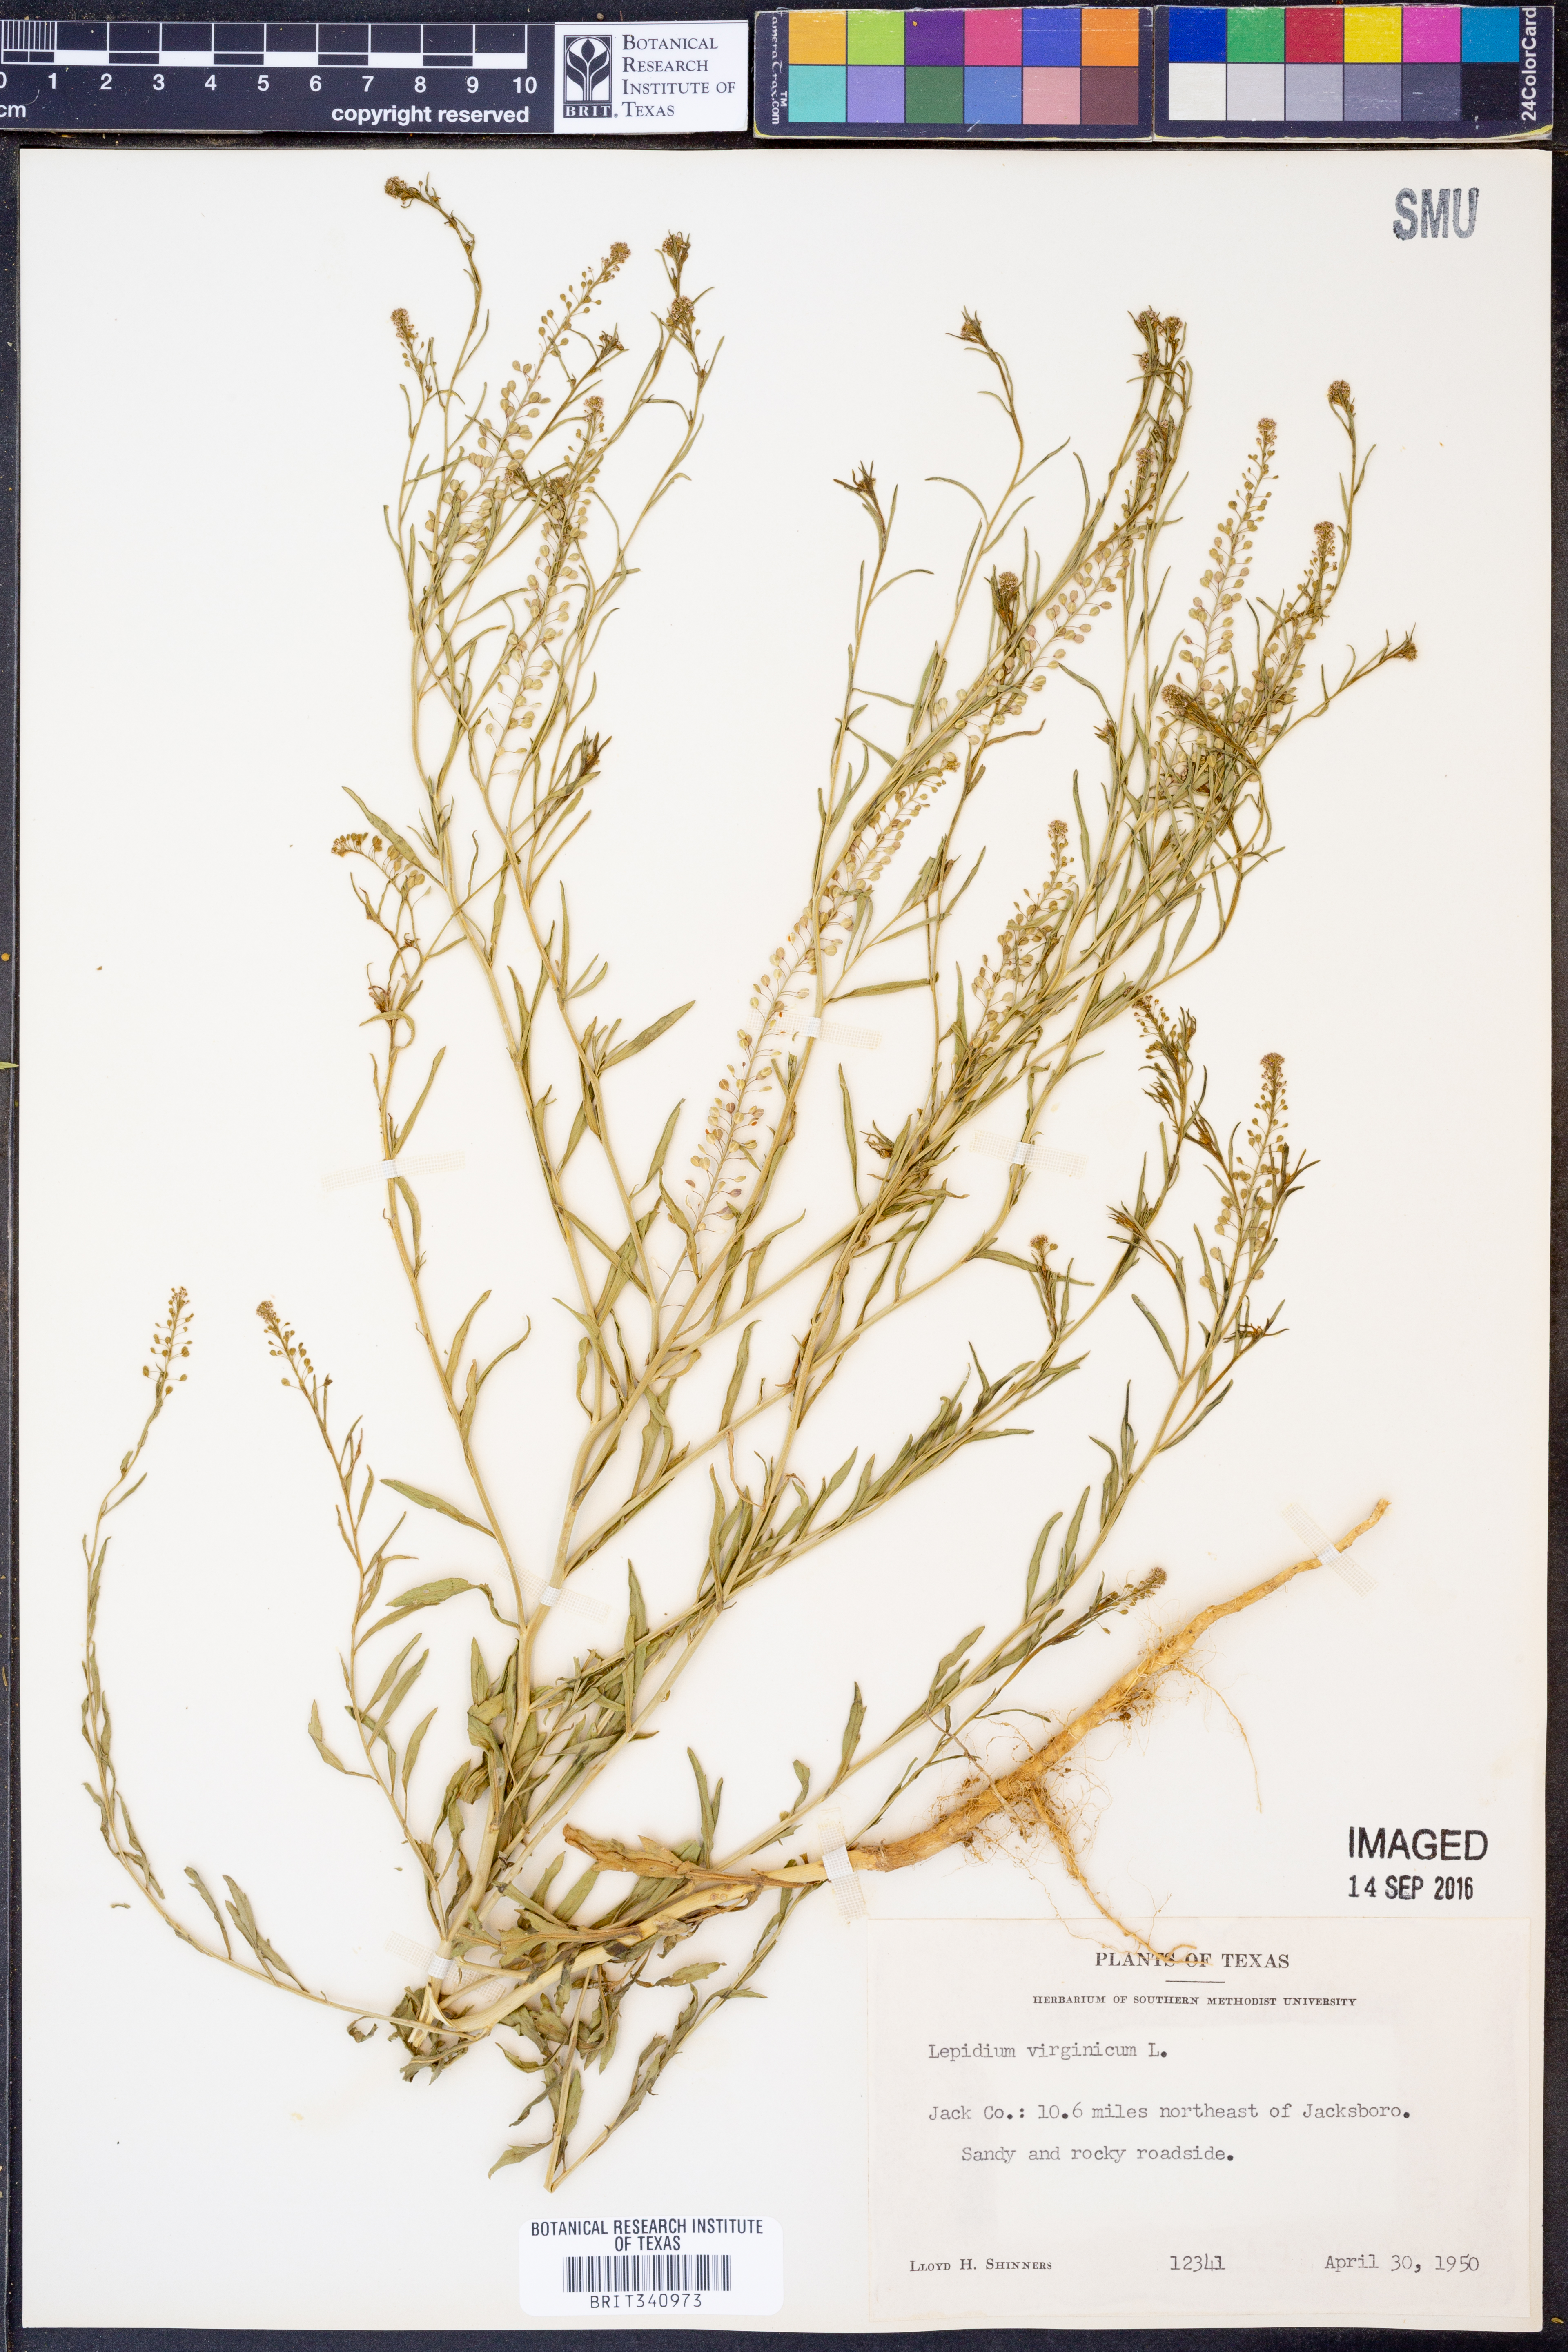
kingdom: Plantae
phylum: Tracheophyta
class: Magnoliopsida
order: Brassicales
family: Brassicaceae
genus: Lepidium
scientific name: Lepidium virginicum
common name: Least pepperwort
